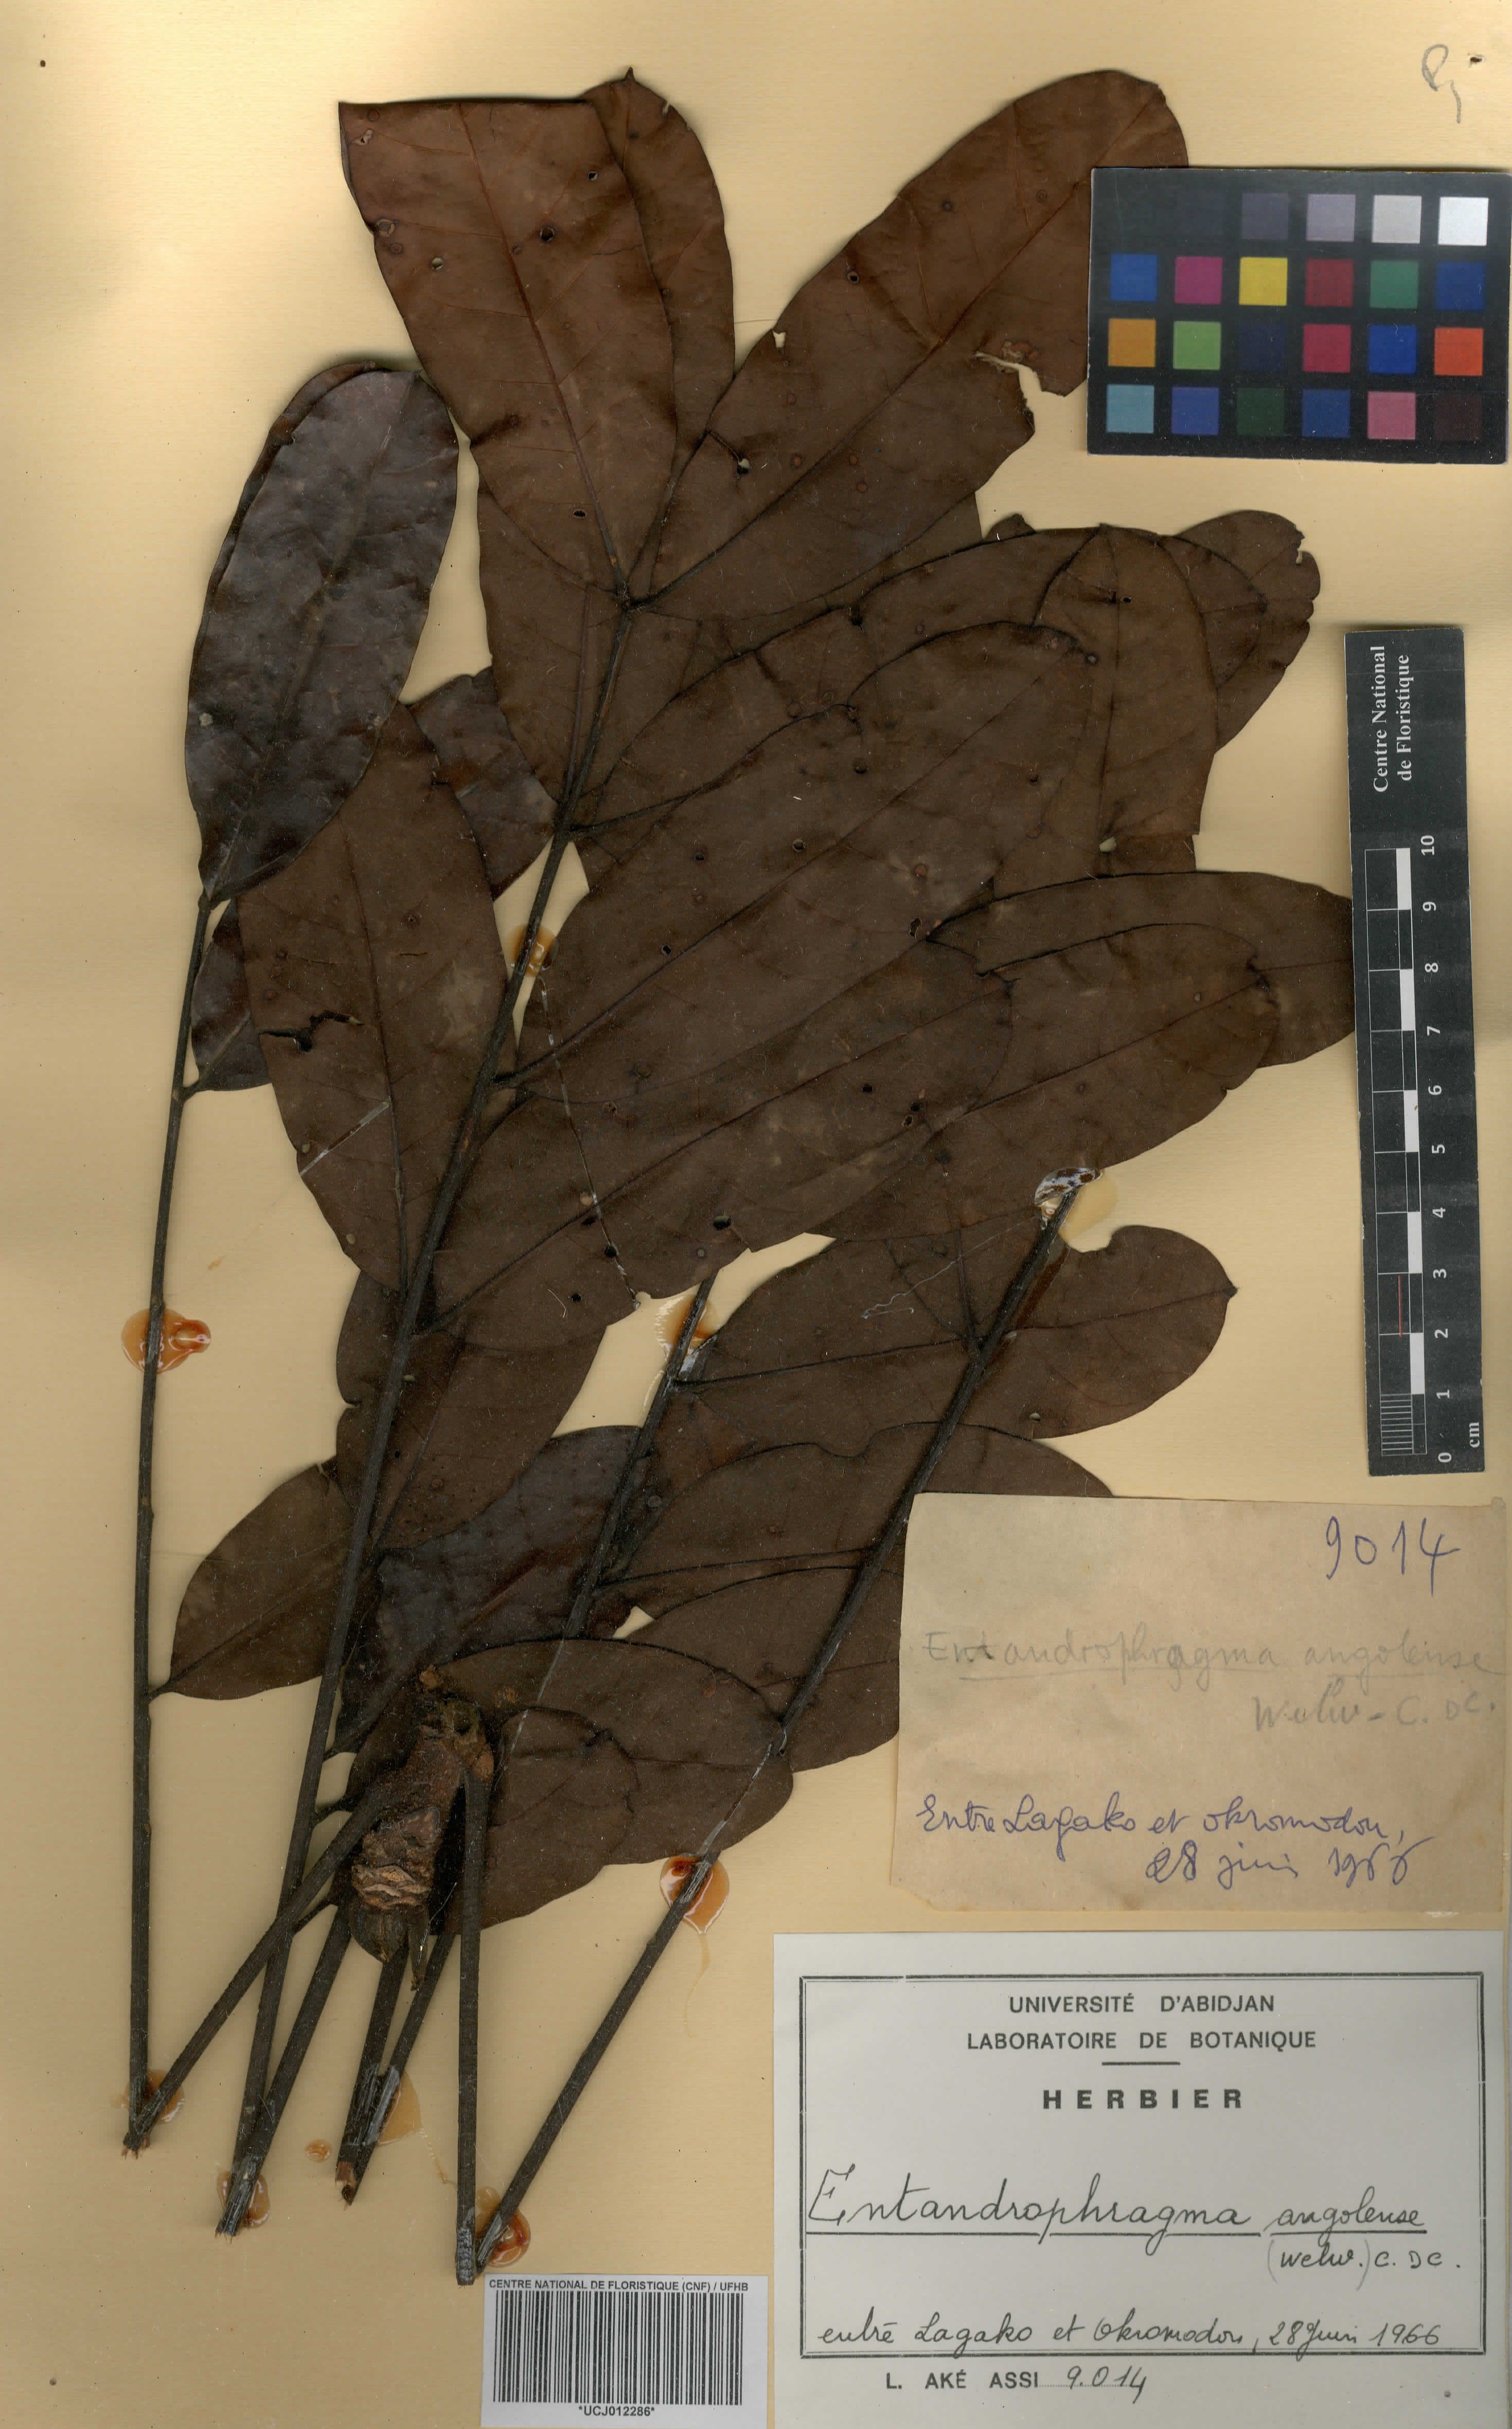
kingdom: Plantae
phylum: Tracheophyta
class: Magnoliopsida
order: Sapindales
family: Meliaceae
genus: Entandrophragma
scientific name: Entandrophragma angolense
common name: African mahogany
